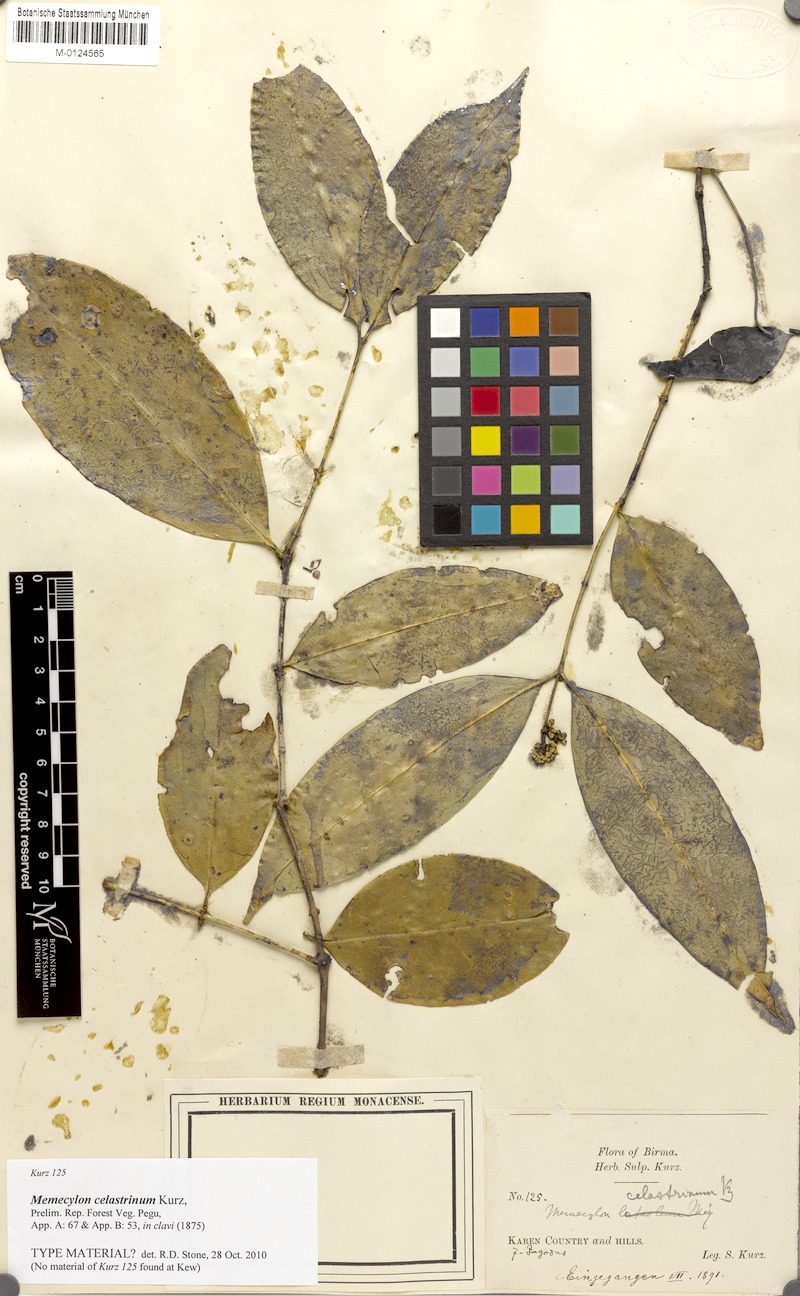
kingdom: Plantae
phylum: Tracheophyta
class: Magnoliopsida
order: Myrtales
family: Melastomataceae
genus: Memecylon
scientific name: Memecylon grande
